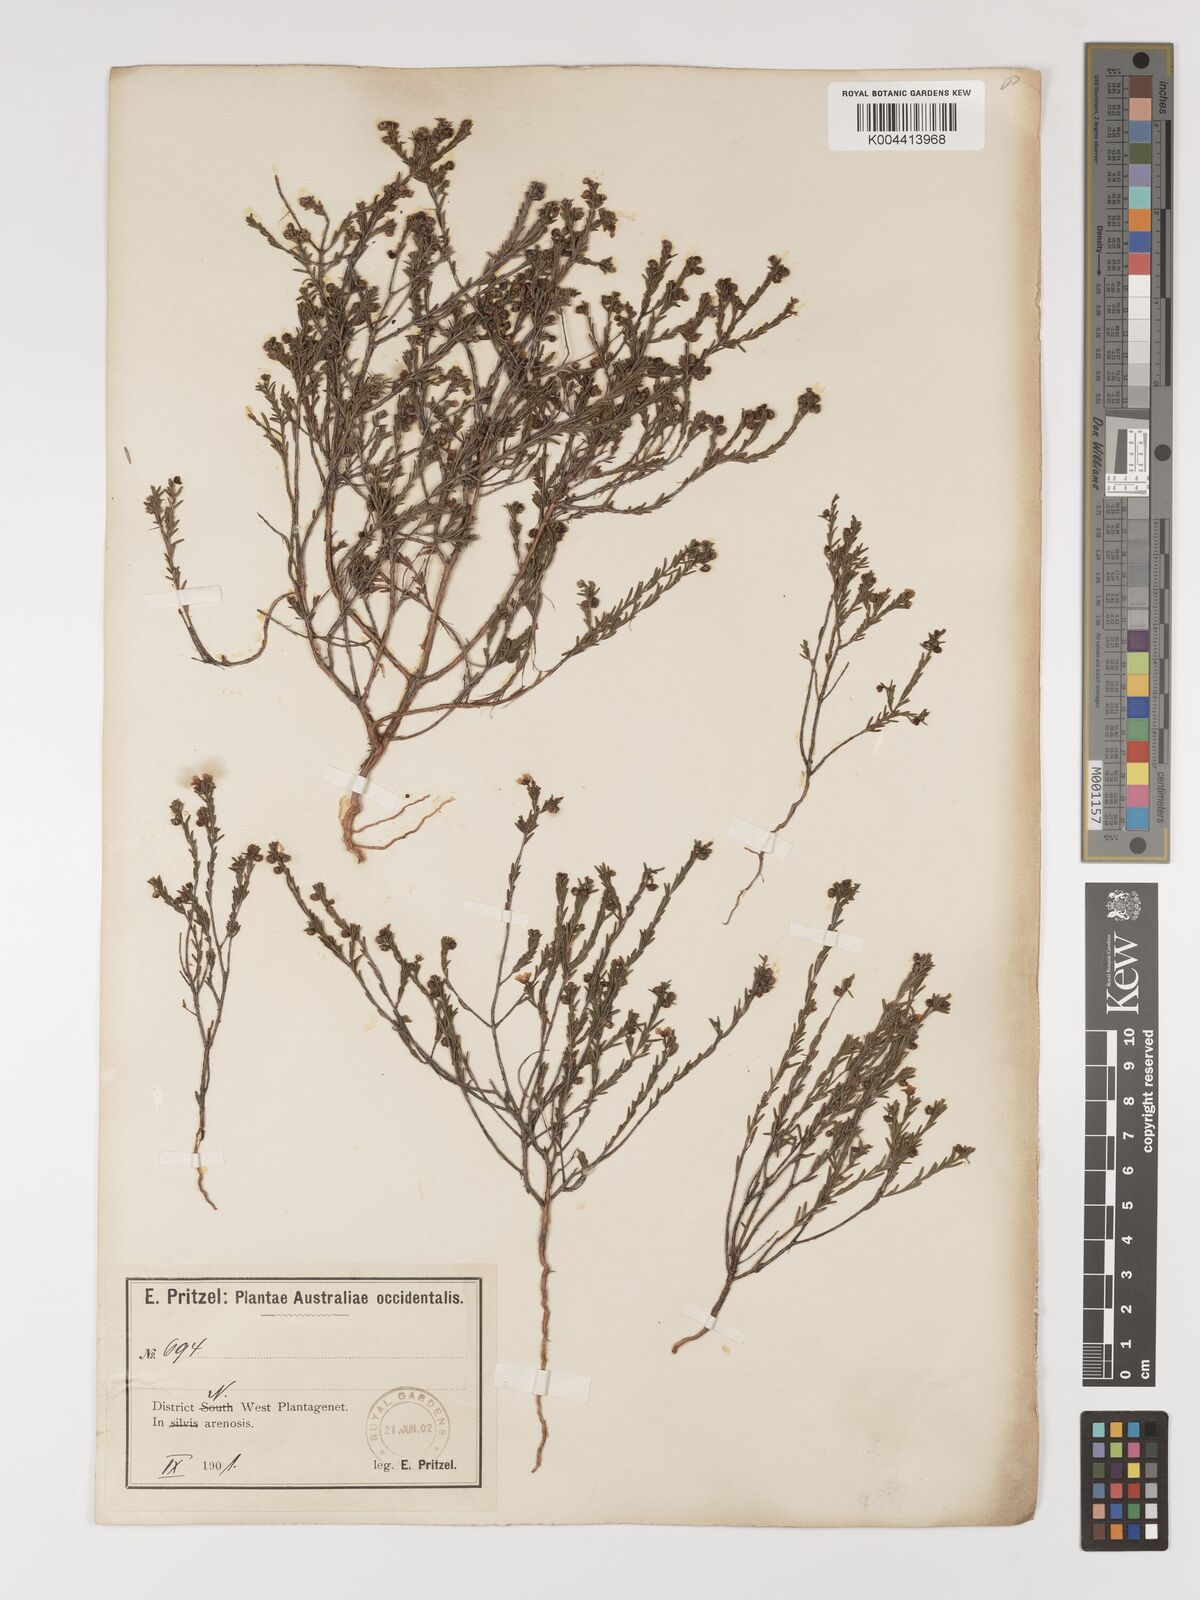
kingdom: Plantae
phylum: Tracheophyta
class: Magnoliopsida
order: Myrtales
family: Myrtaceae
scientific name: Myrtaceae
